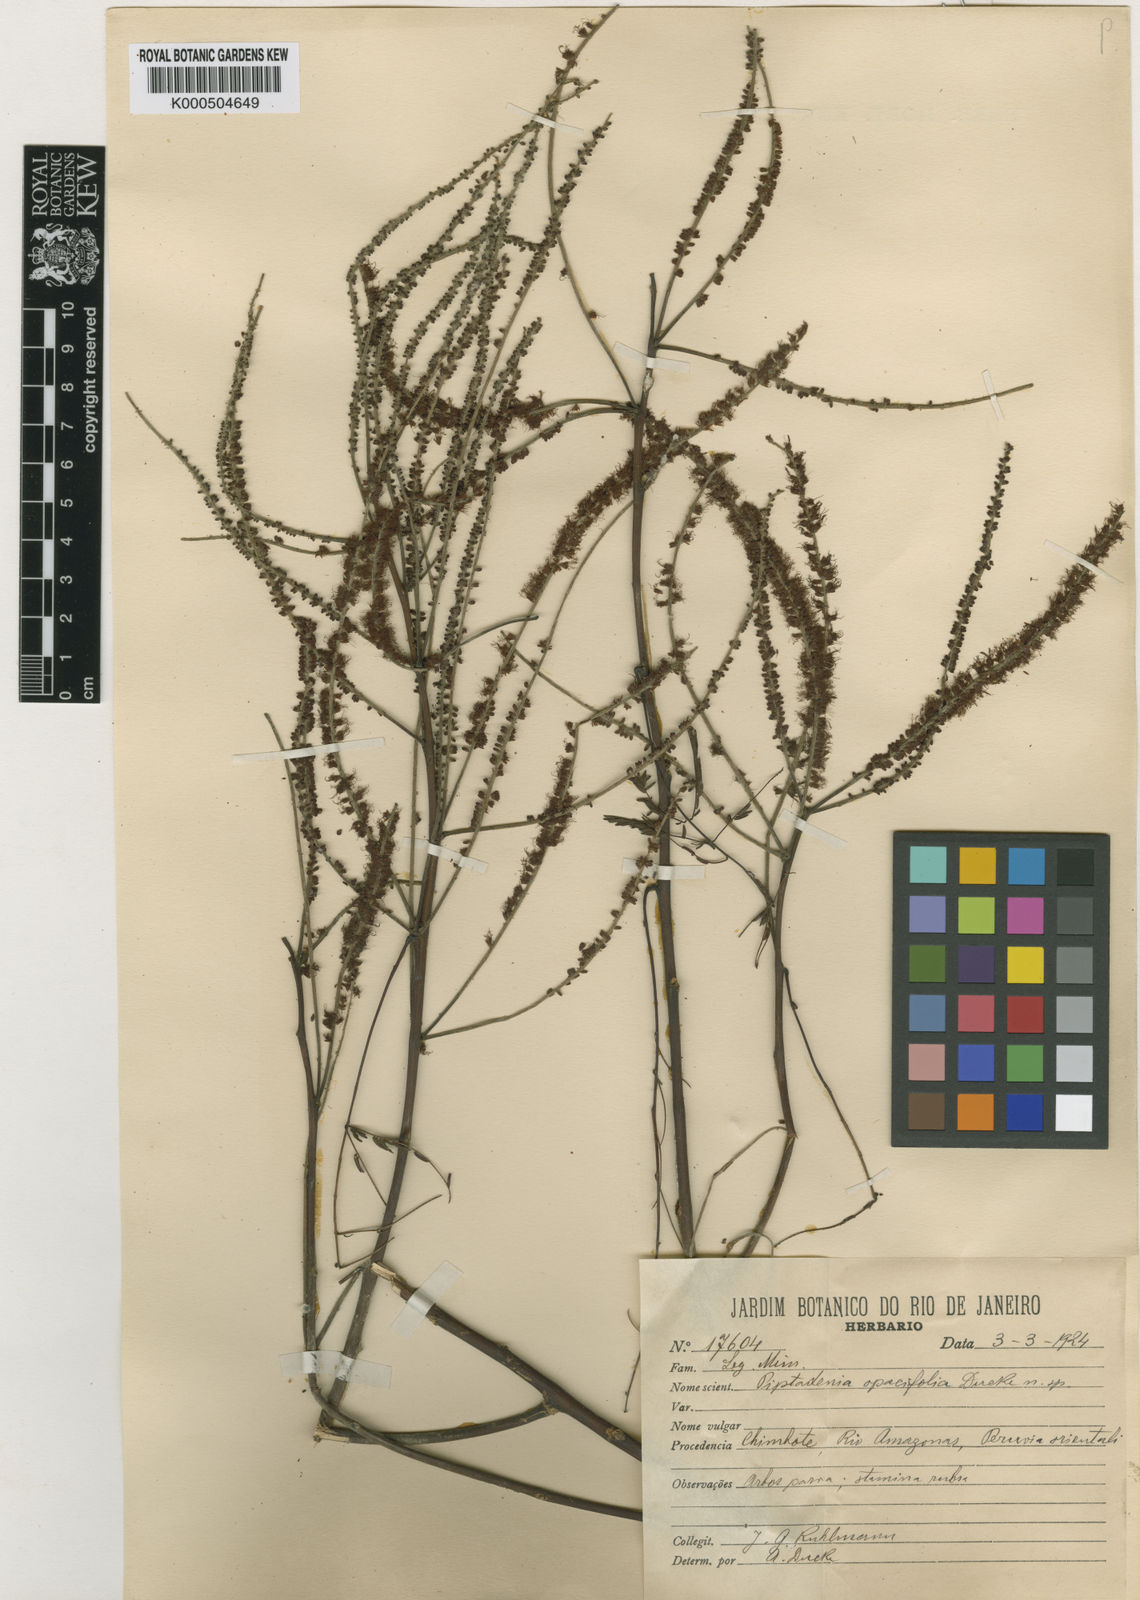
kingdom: Plantae
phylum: Tracheophyta
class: Magnoliopsida
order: Fabales
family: Fabaceae
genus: Piptadenia
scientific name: Piptadenia pteroclada
